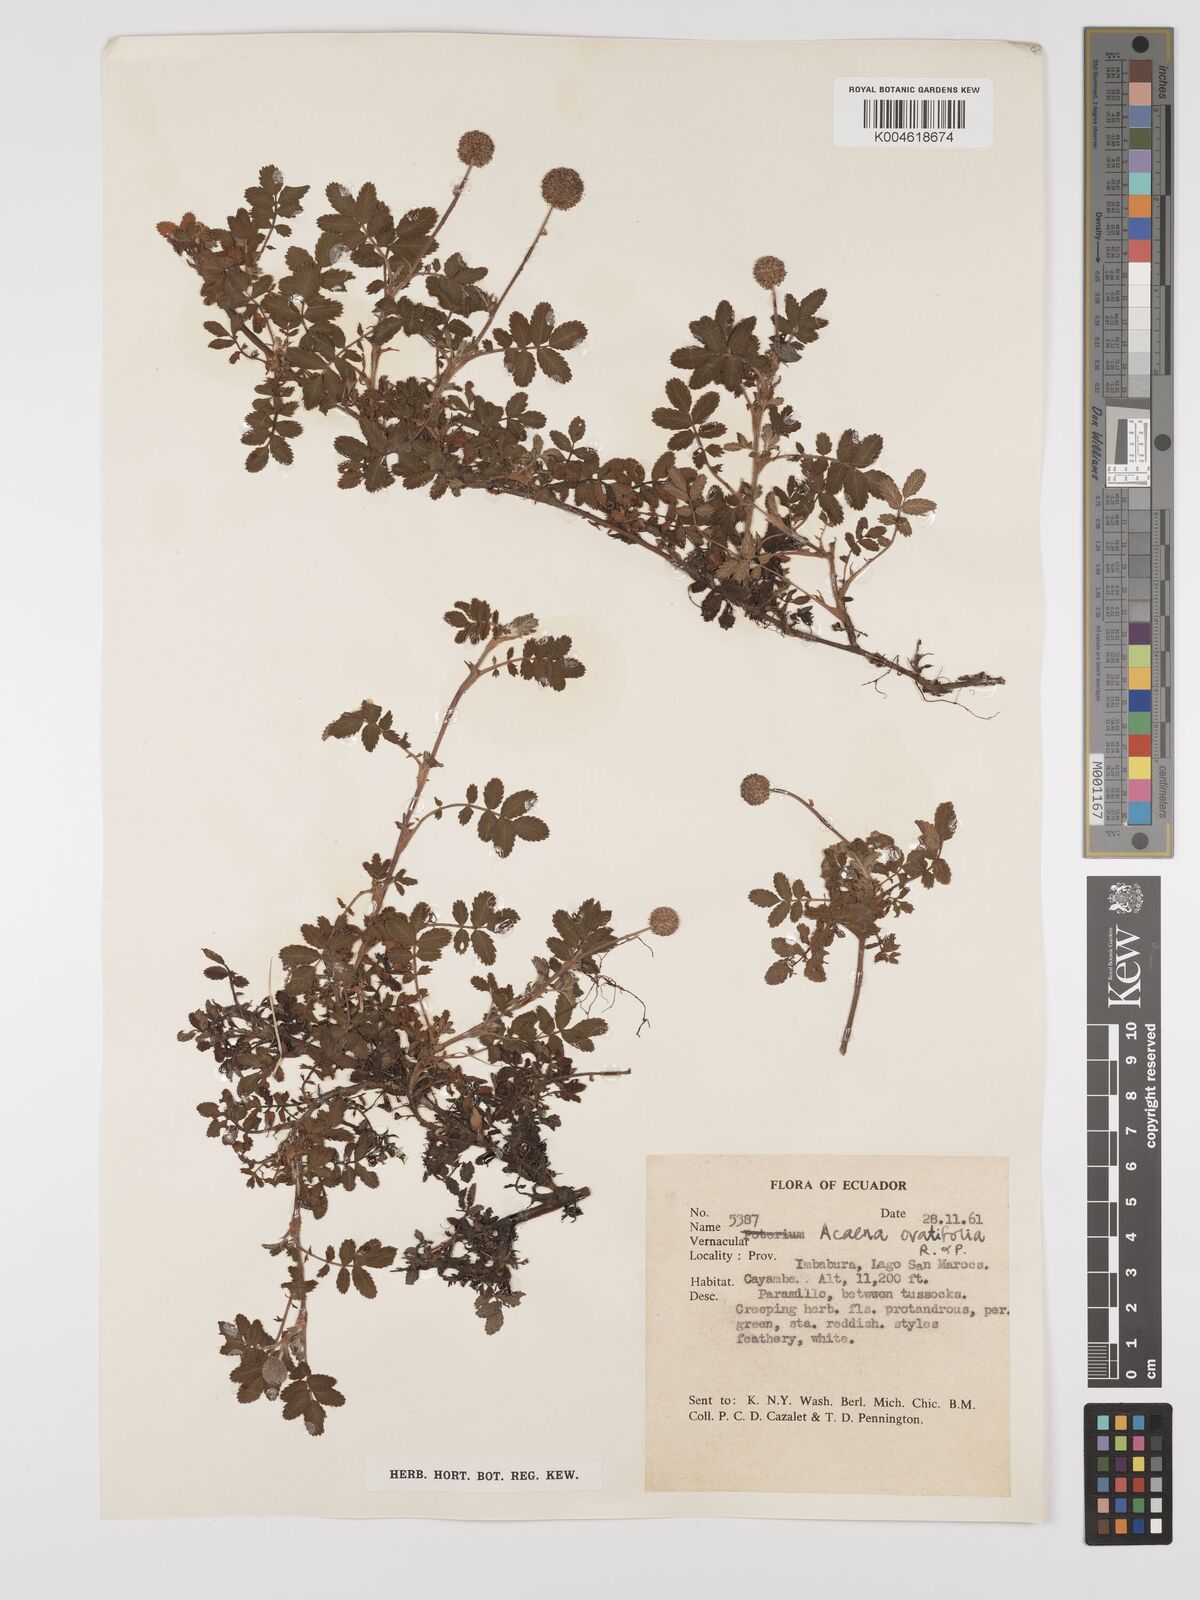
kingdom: Plantae
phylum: Tracheophyta
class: Magnoliopsida
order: Rosales
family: Rosaceae
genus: Acaena
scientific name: Acaena ovalifolia
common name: Two-spined acaena
